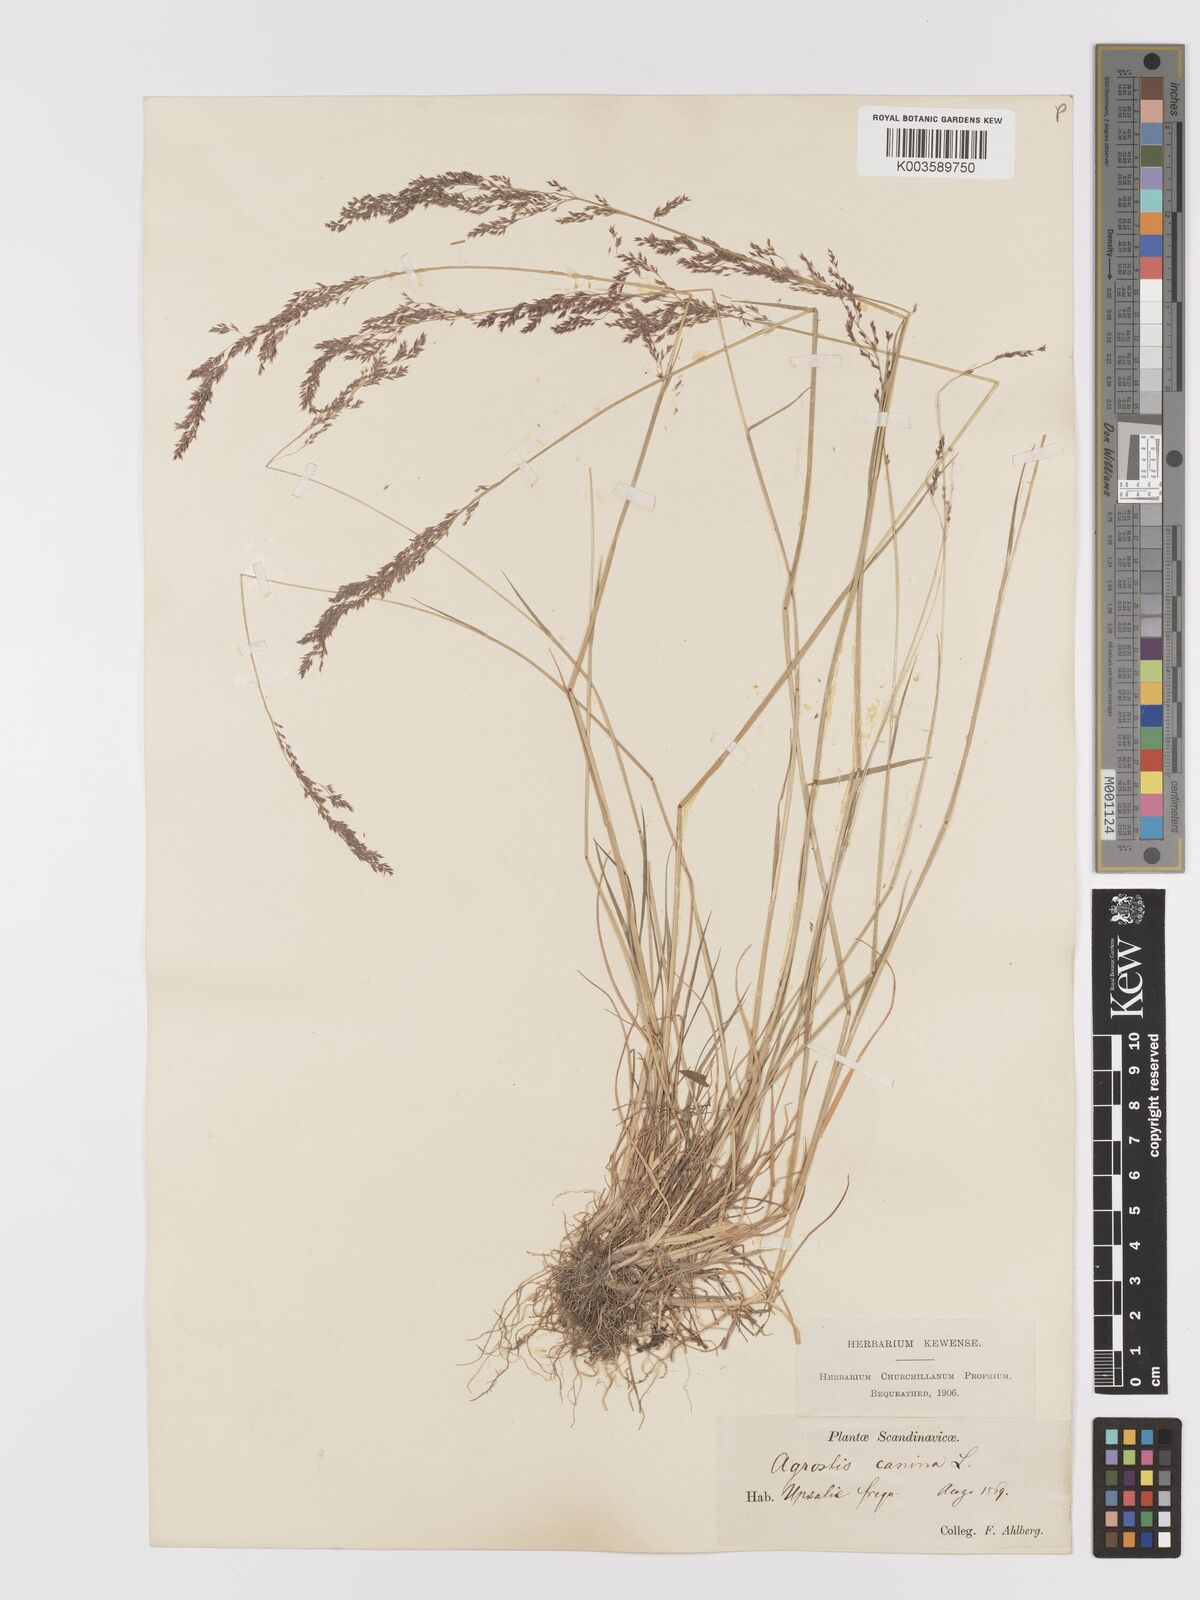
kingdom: Plantae
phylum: Tracheophyta
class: Liliopsida
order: Poales
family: Poaceae
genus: Agrostis
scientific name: Agrostis
